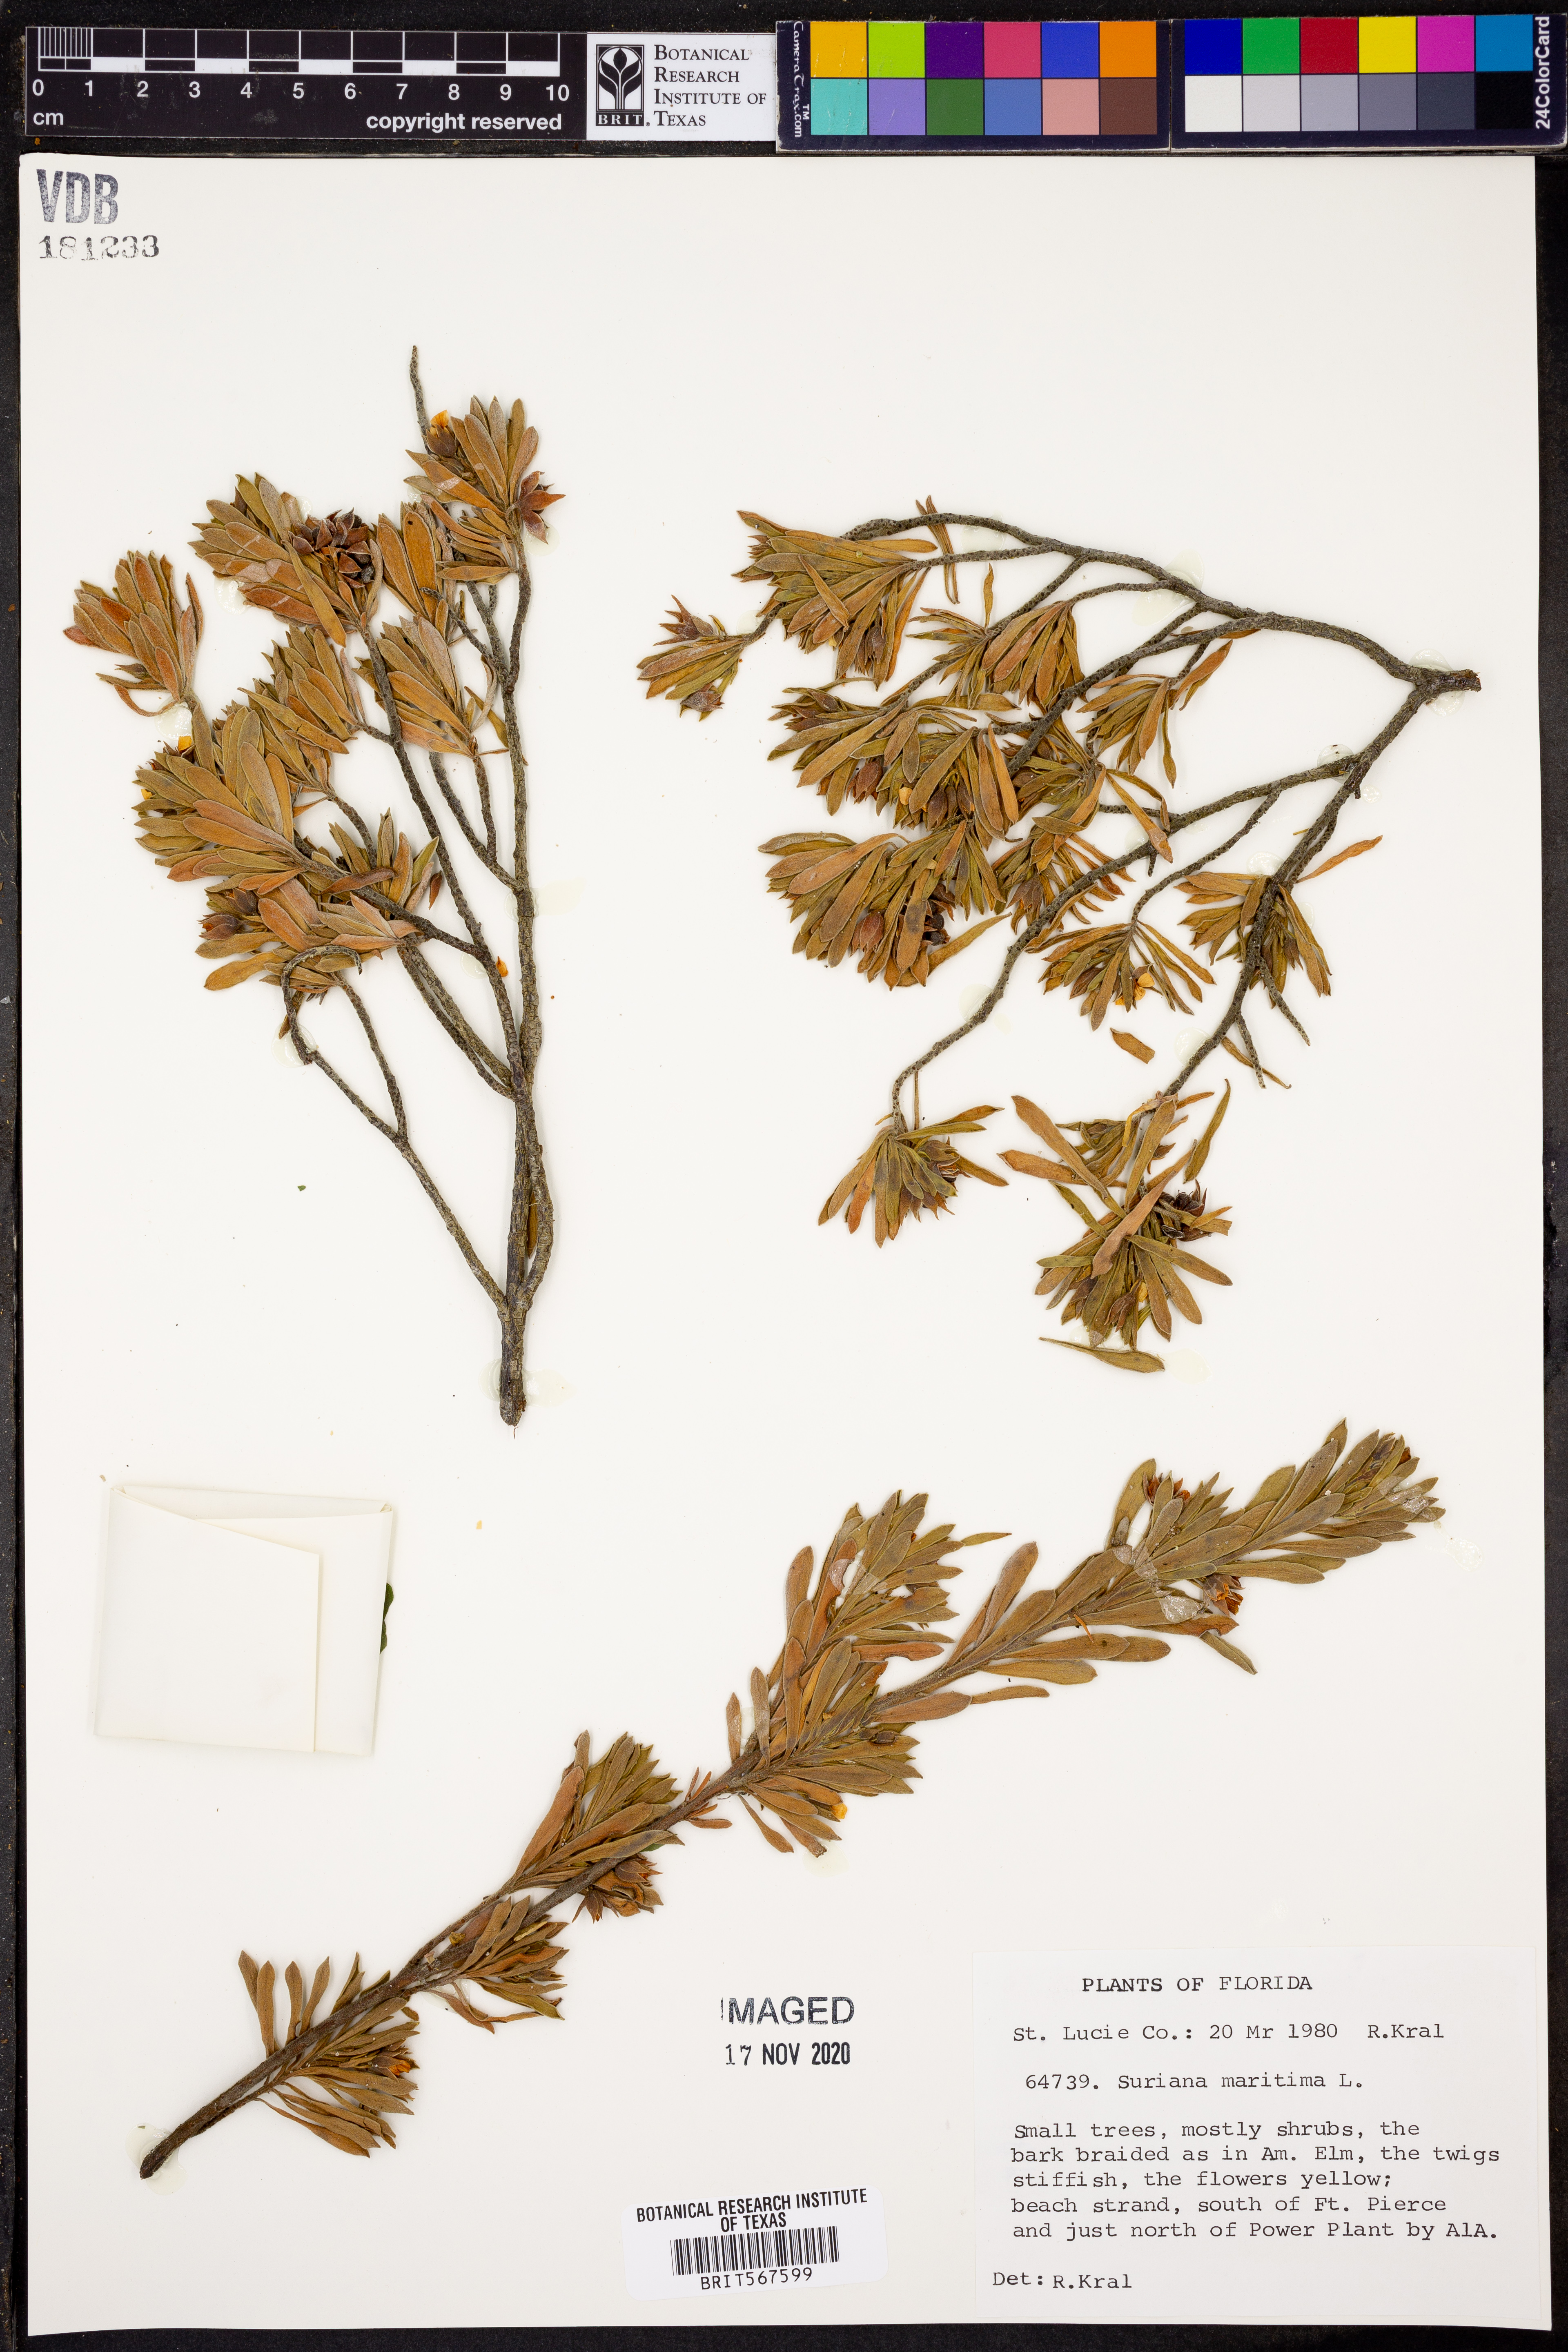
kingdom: Plantae
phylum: Tracheophyta
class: Magnoliopsida
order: Fabales
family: Surianaceae
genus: Suriana
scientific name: Suriana maritima
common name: Bay-cedar
